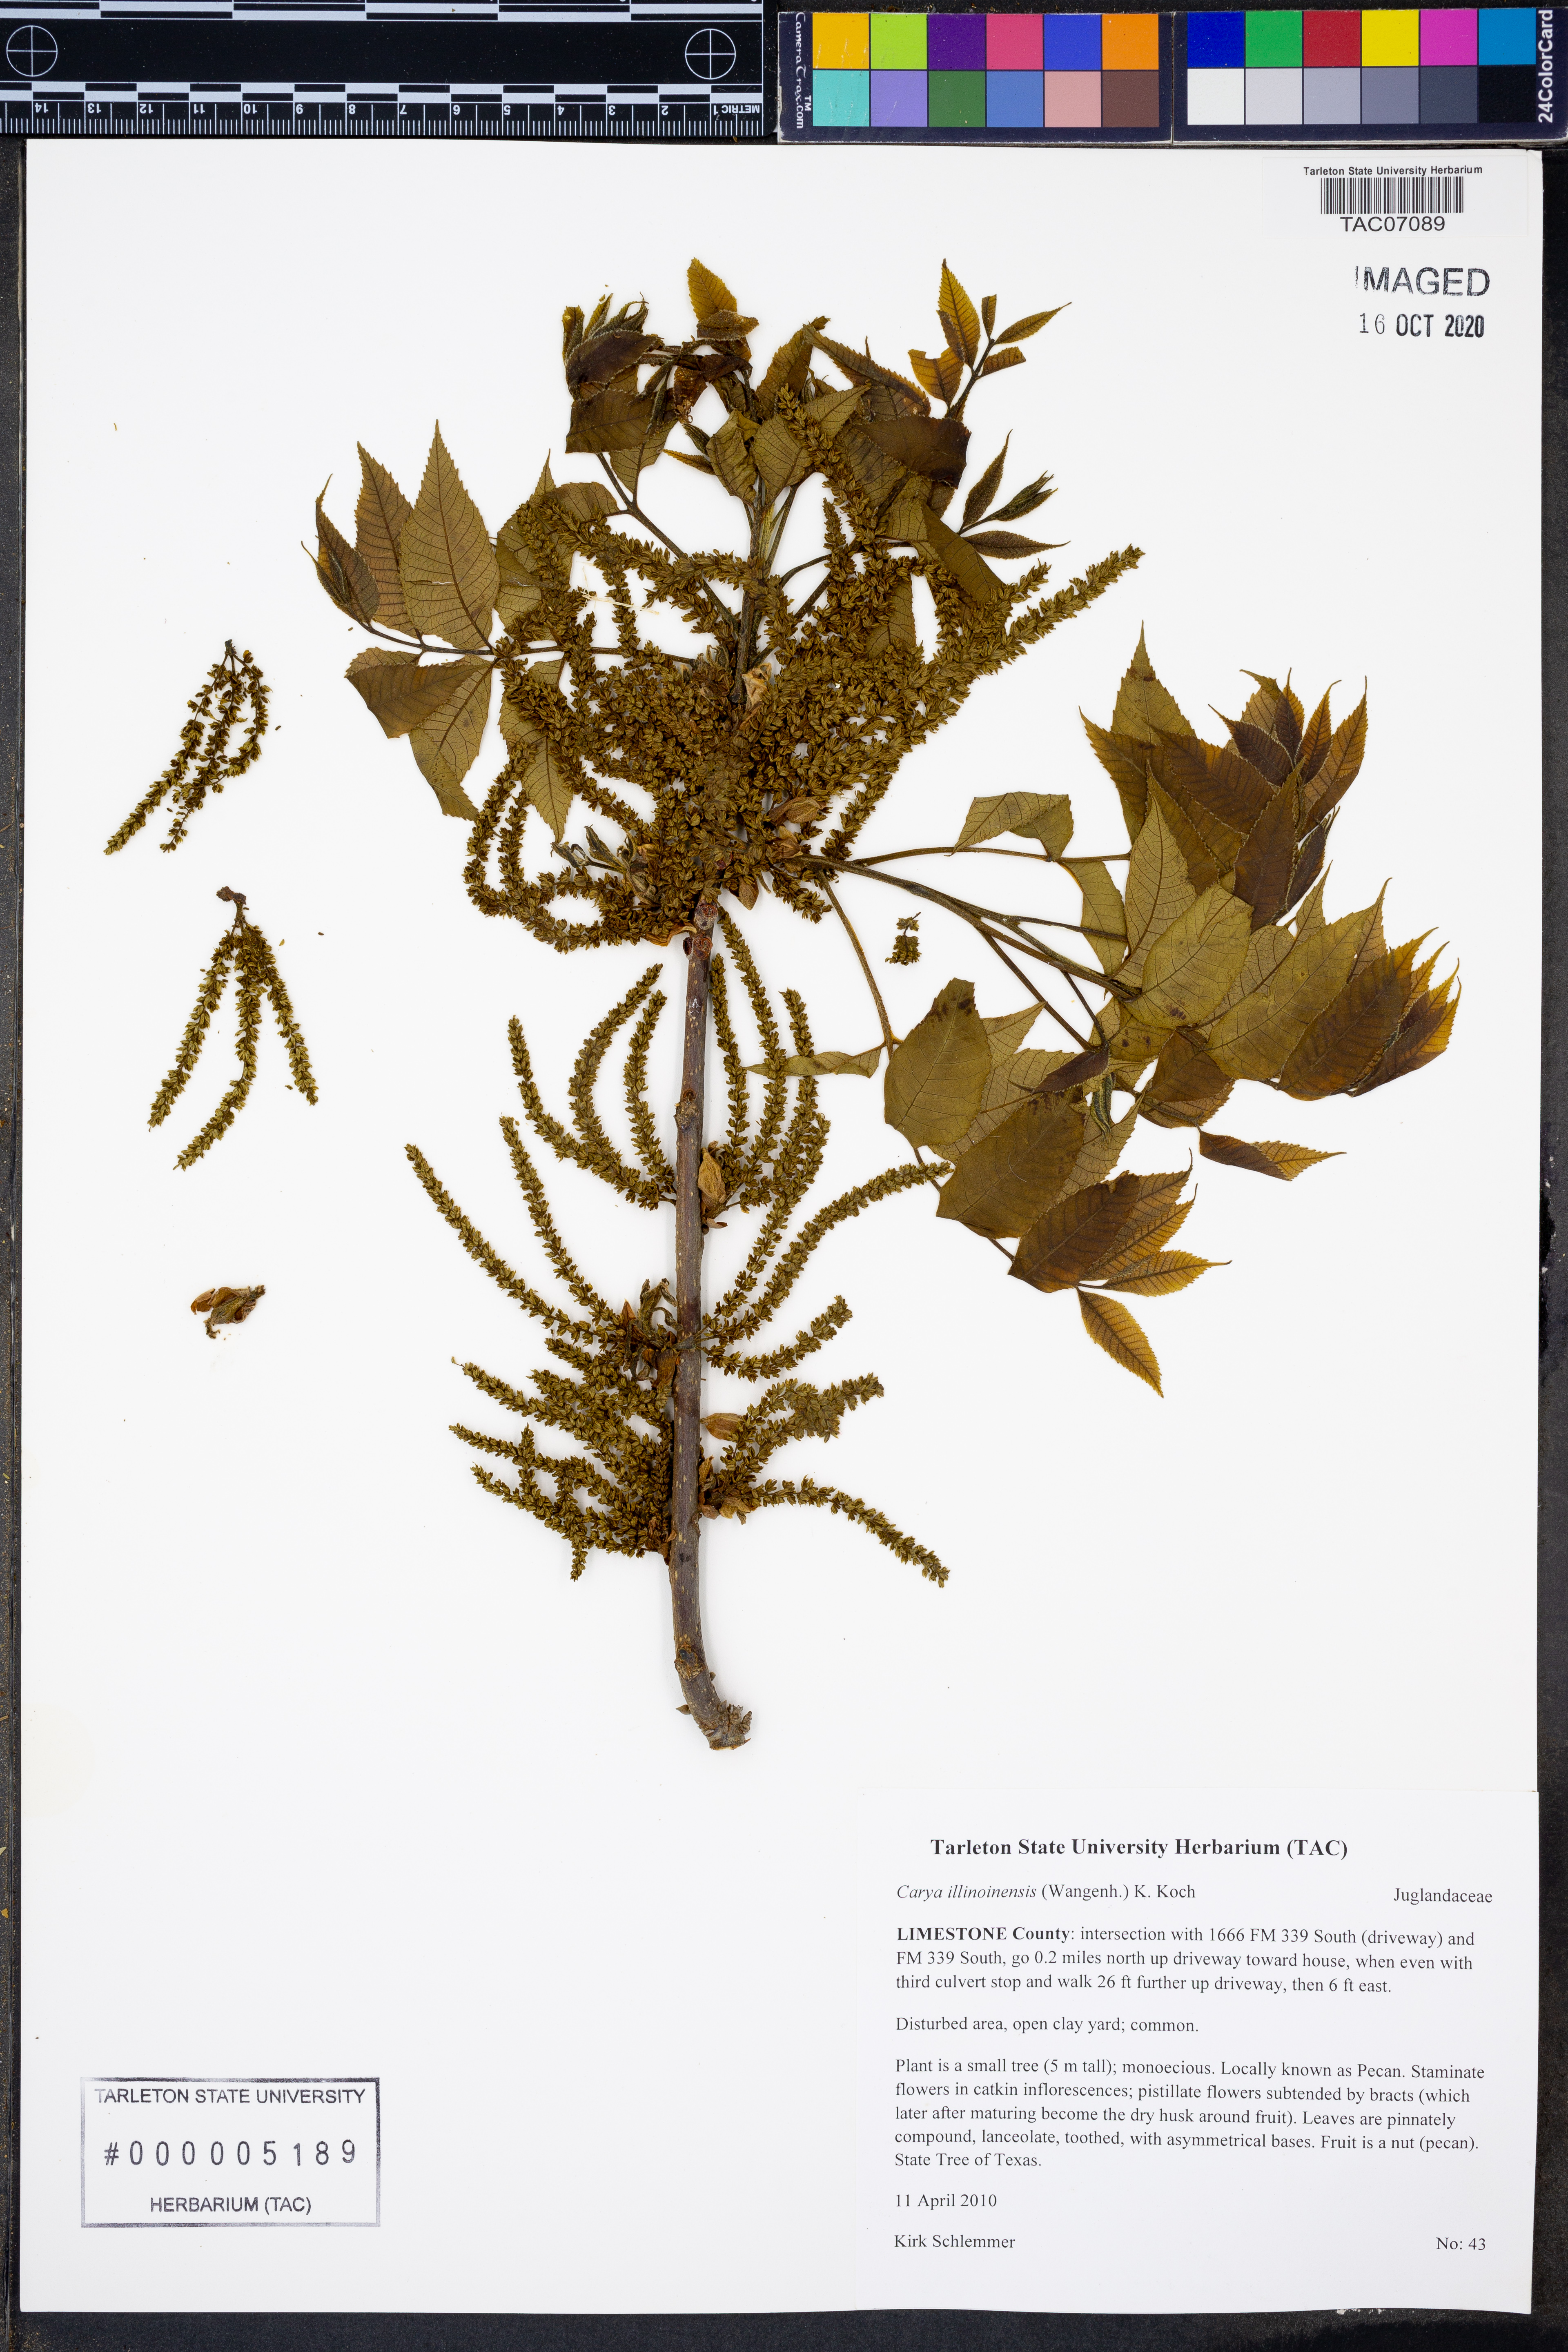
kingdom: Plantae
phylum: Tracheophyta
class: Magnoliopsida
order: Fagales
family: Juglandaceae
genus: Carya
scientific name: Carya illinoinensis
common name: Pecan
